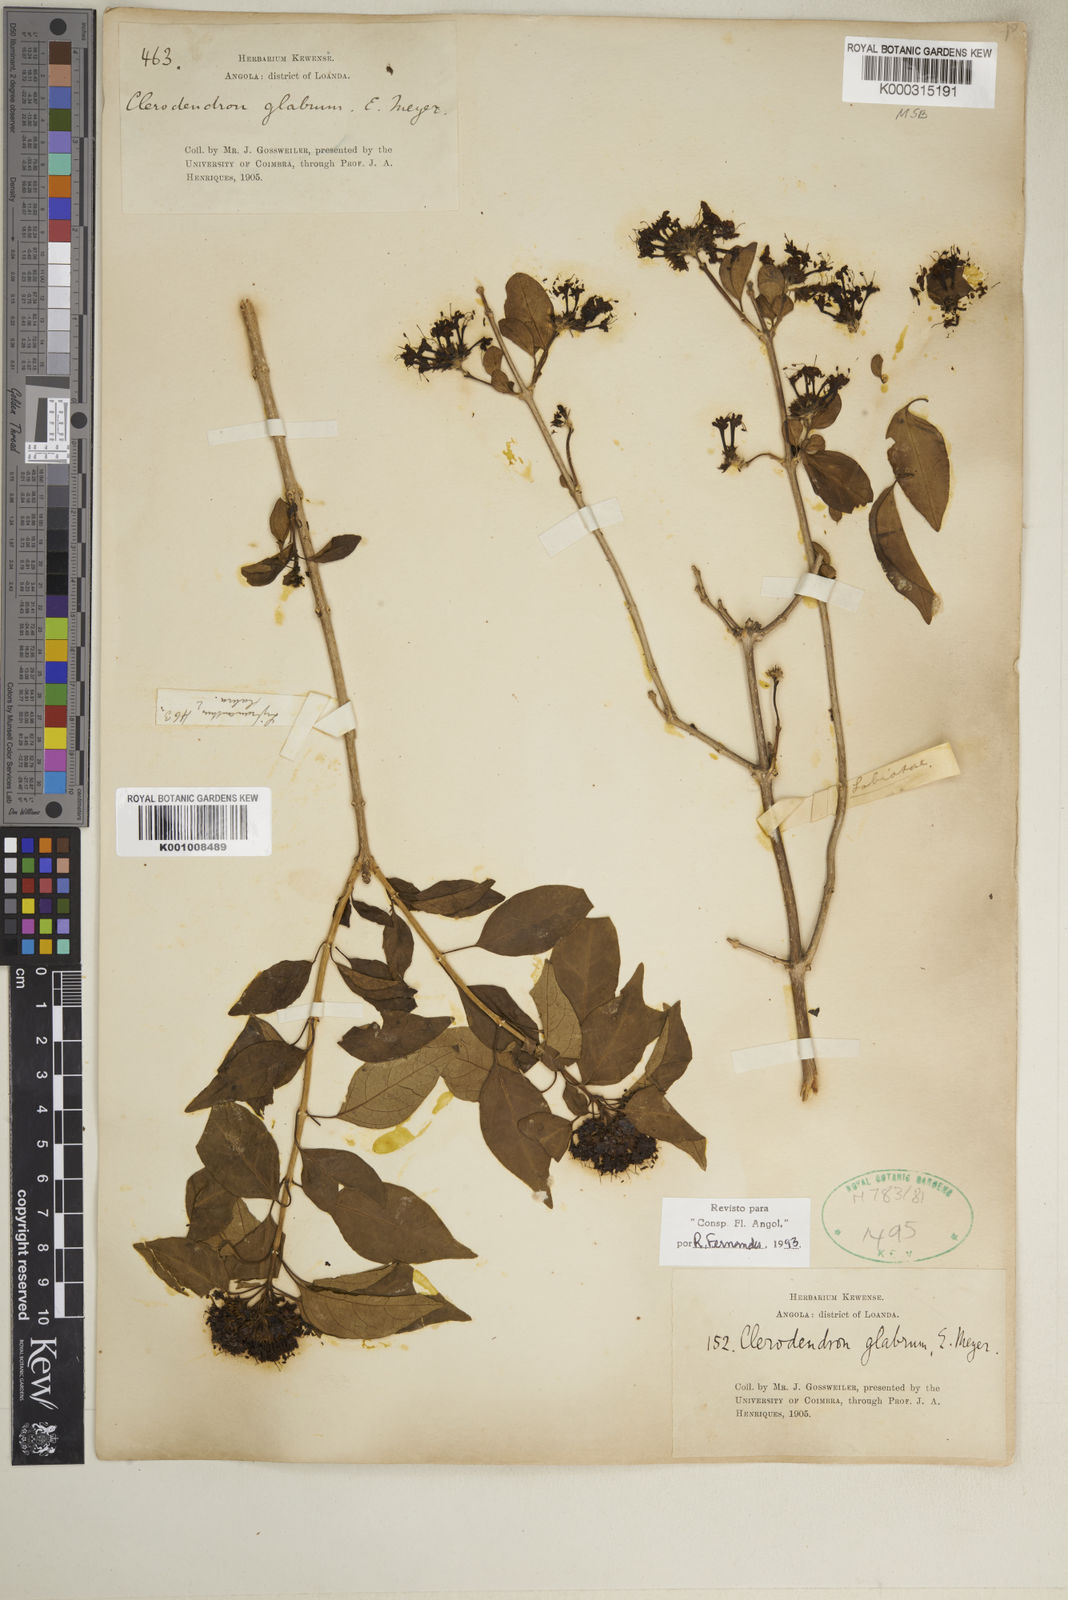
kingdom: Plantae
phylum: Tracheophyta
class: Magnoliopsida
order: Lamiales
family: Lamiaceae
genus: Volkameria
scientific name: Volkameria glabra
